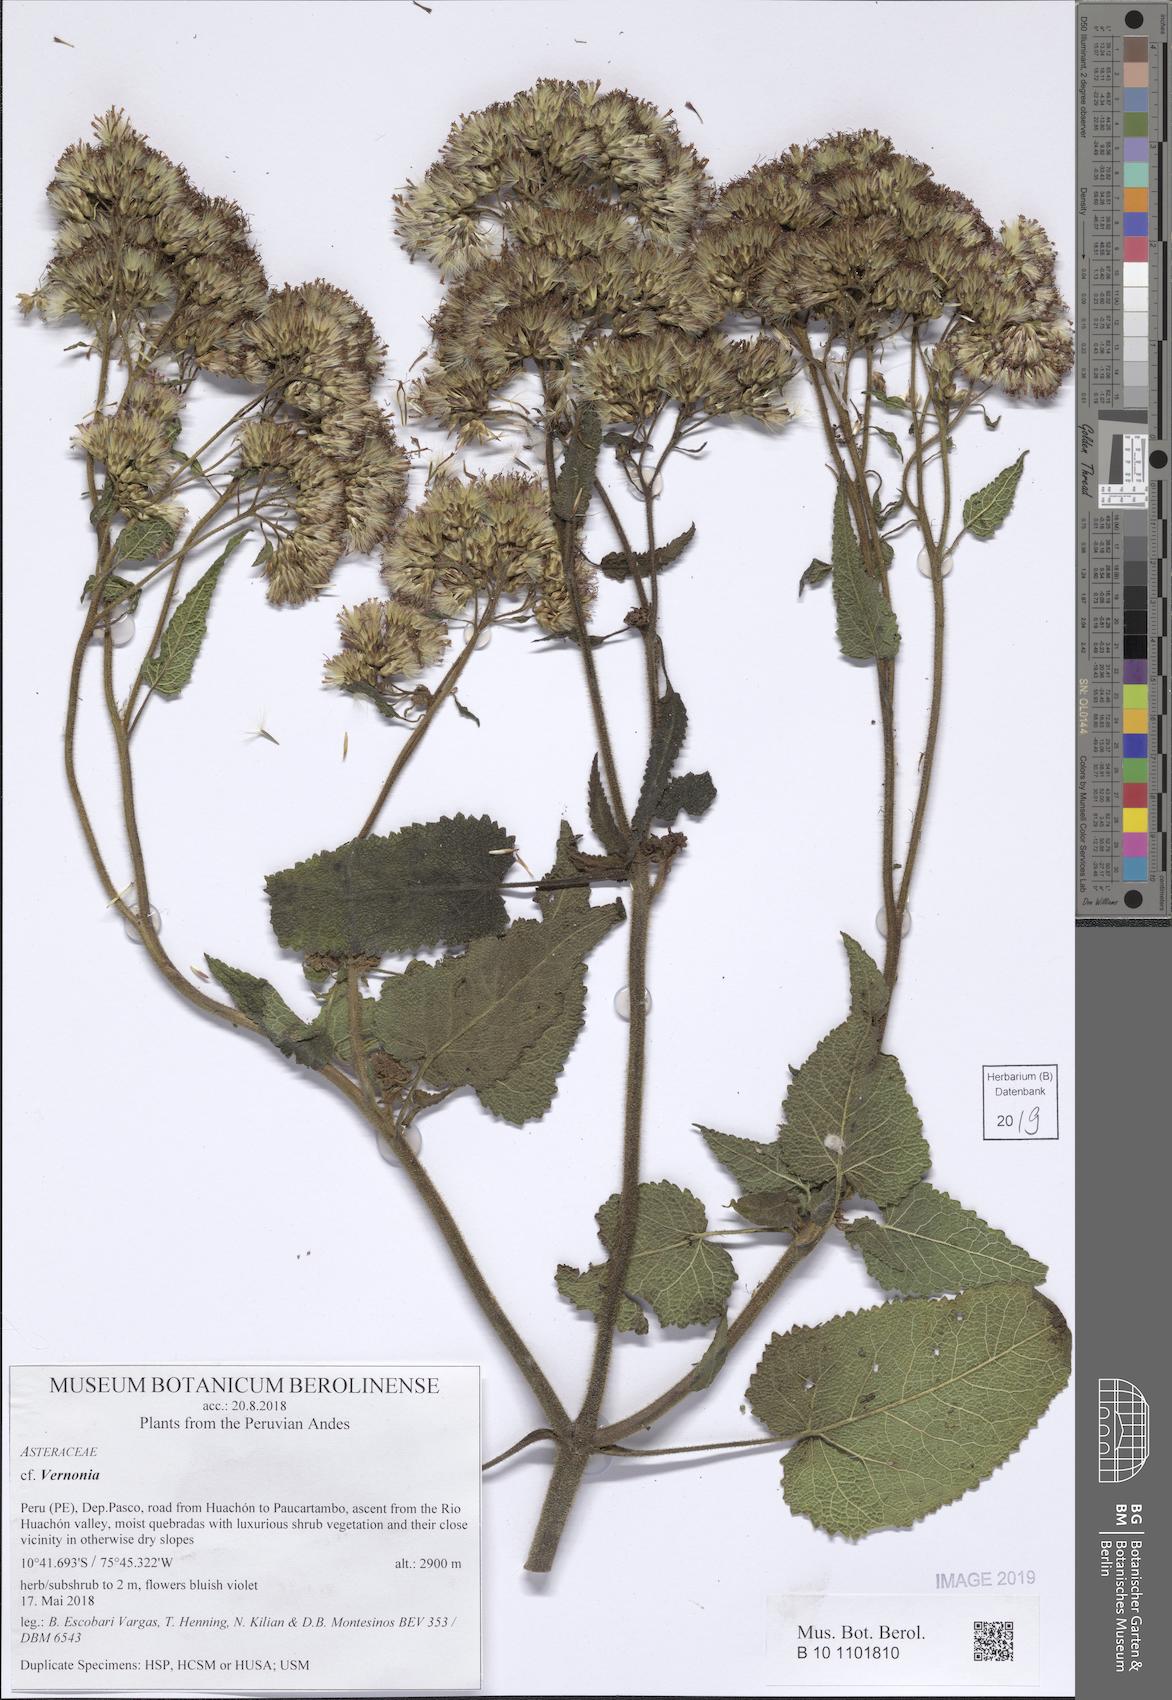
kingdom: Plantae
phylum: Tracheophyta
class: Magnoliopsida
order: Asterales
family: Asteraceae
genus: Vernonia
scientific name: Vernonia
